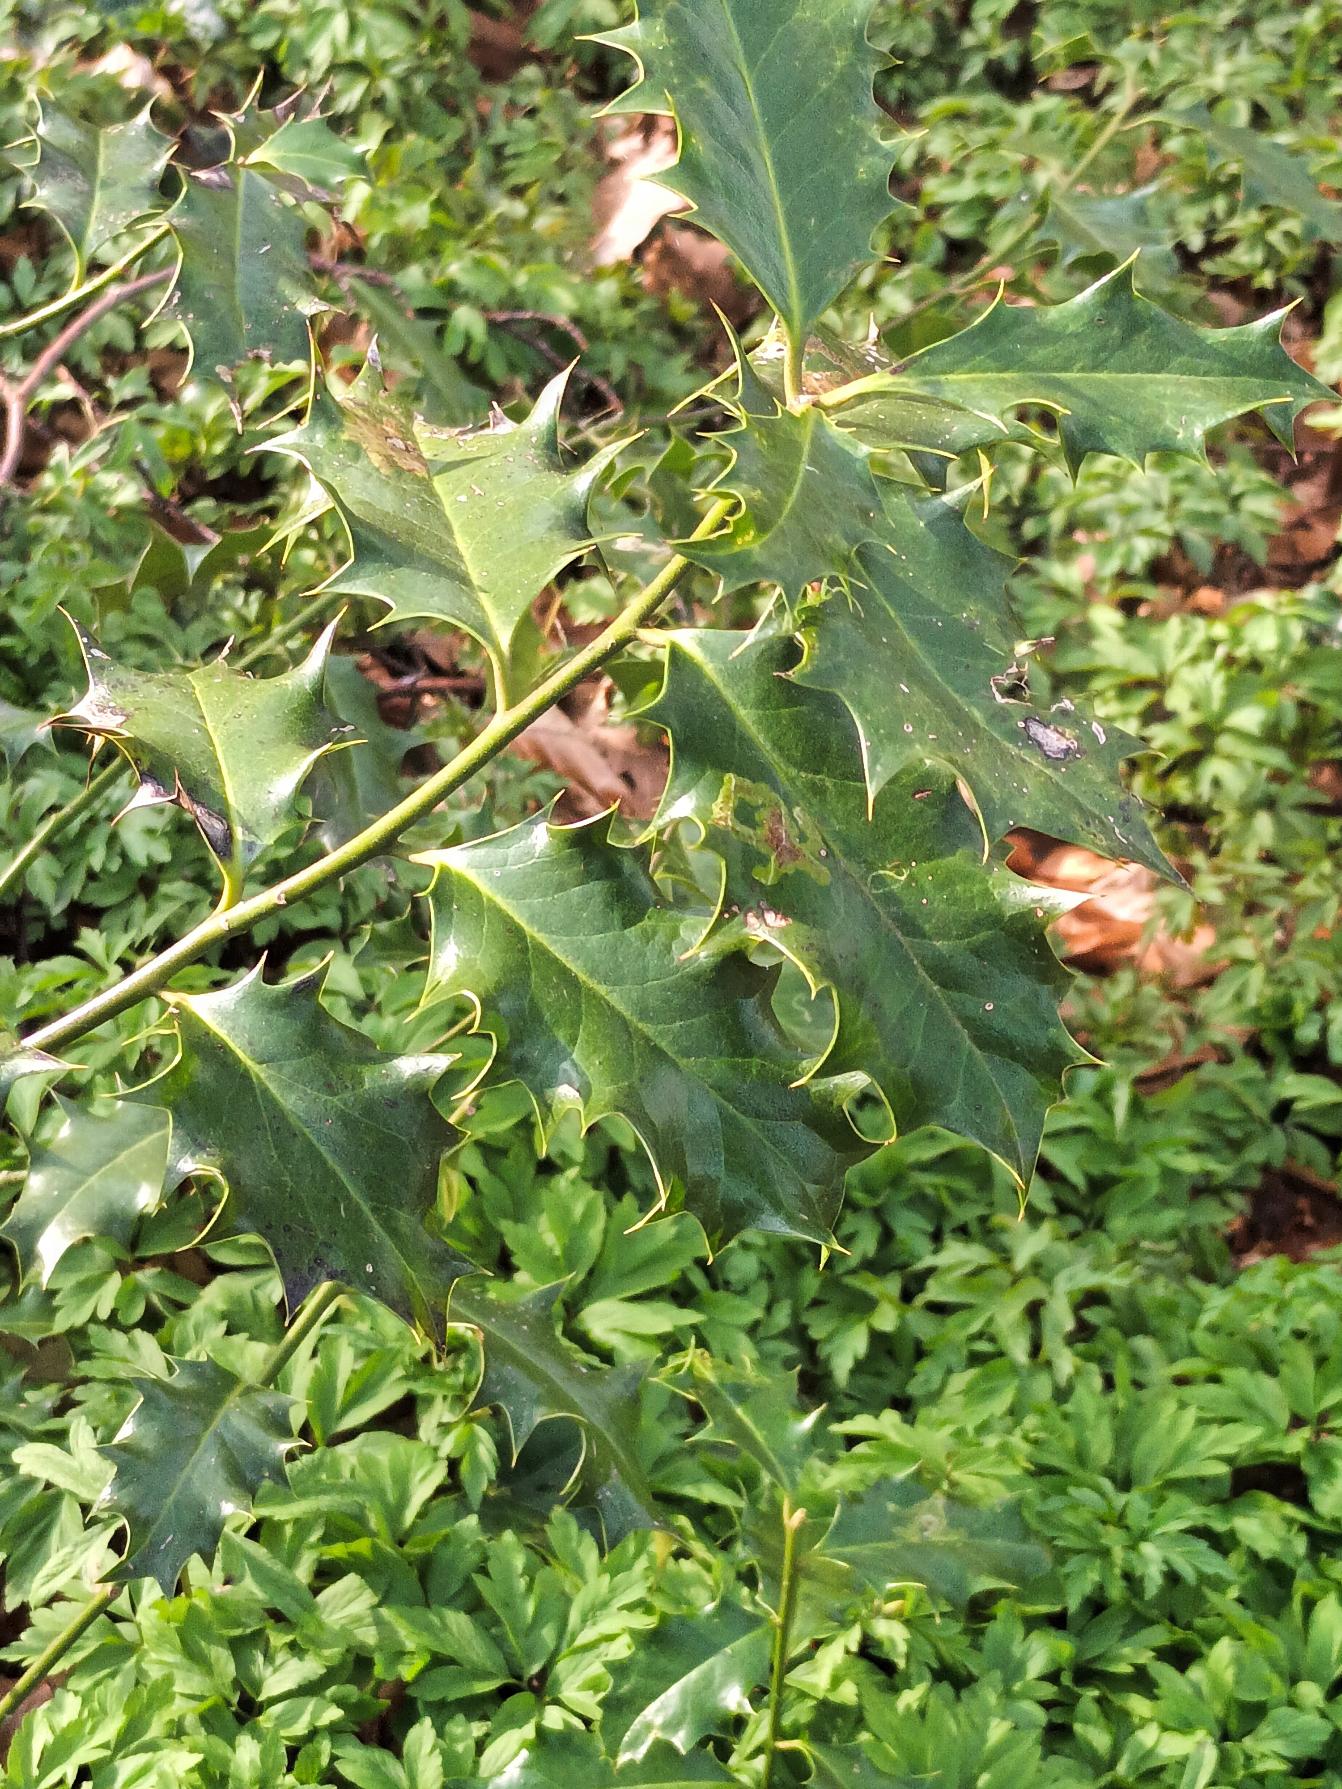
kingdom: Plantae
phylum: Tracheophyta
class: Magnoliopsida
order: Aquifoliales
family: Aquifoliaceae
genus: Ilex
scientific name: Ilex aquifolium
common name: Kristtorn
